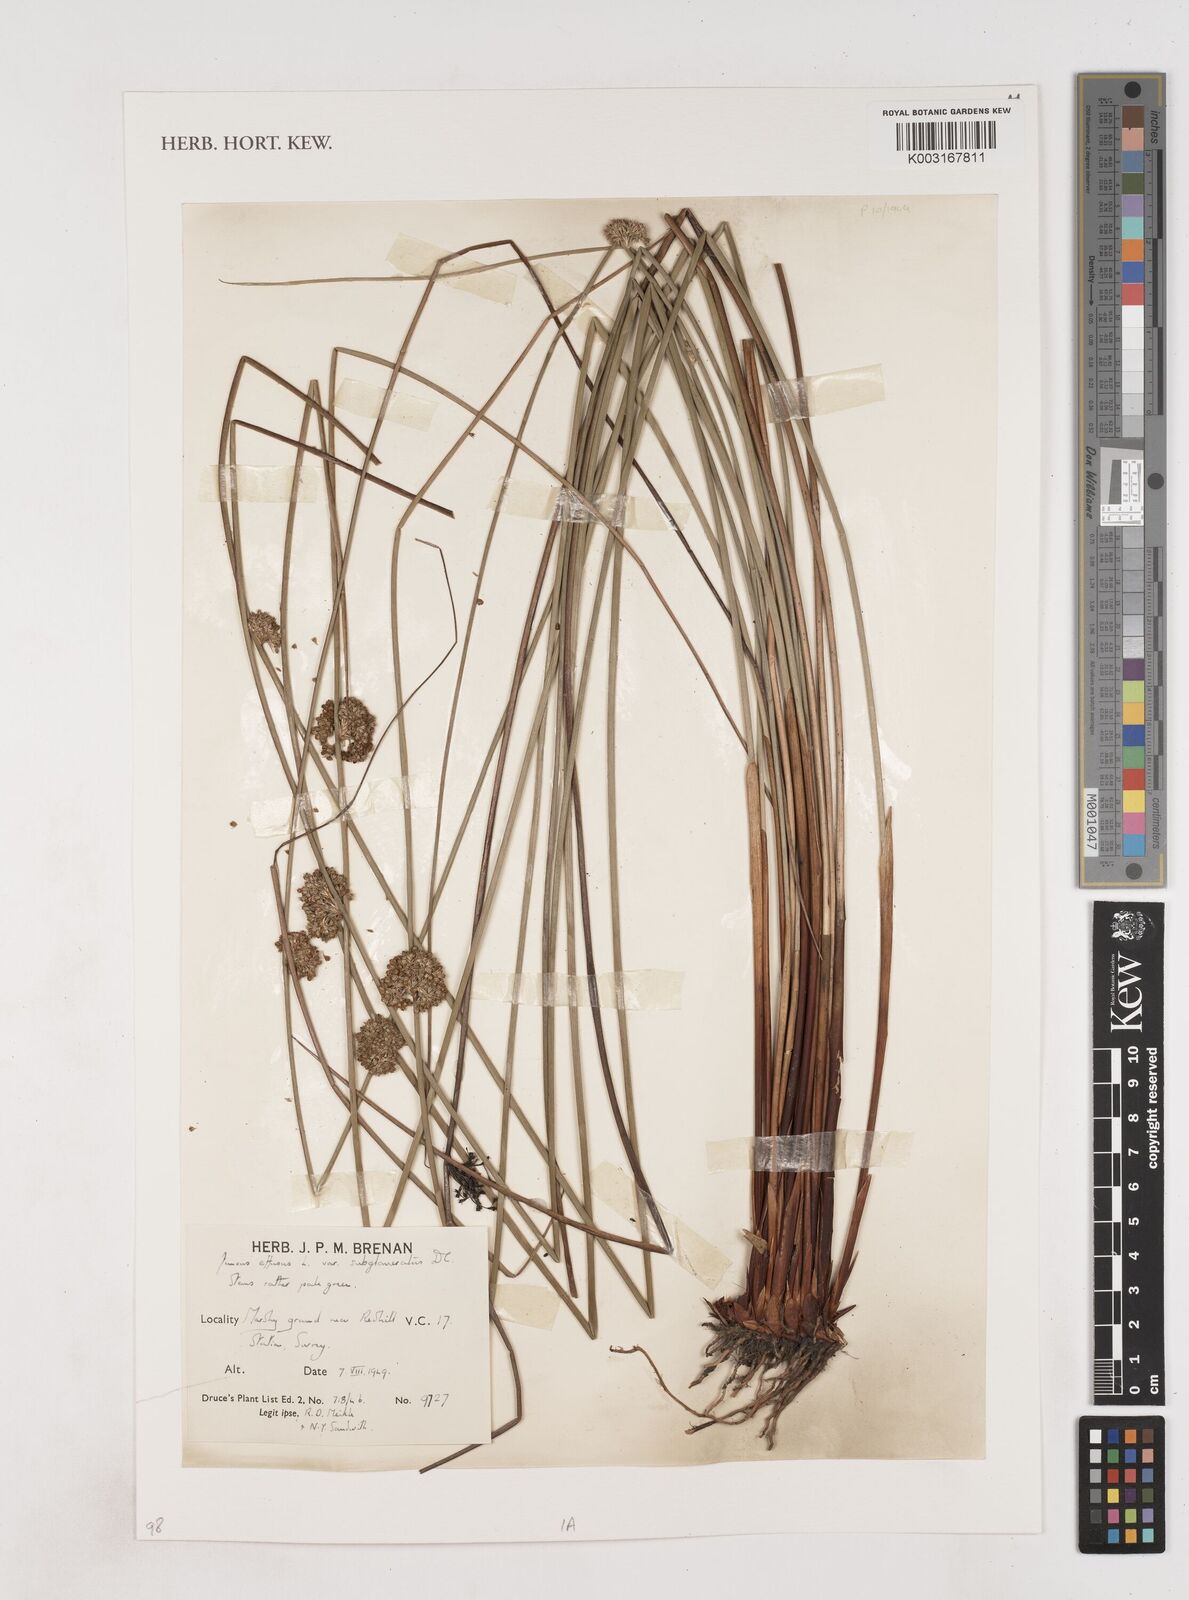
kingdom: Plantae
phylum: Tracheophyta
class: Liliopsida
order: Poales
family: Juncaceae
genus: Juncus
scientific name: Juncus effusus
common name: Soft rush
